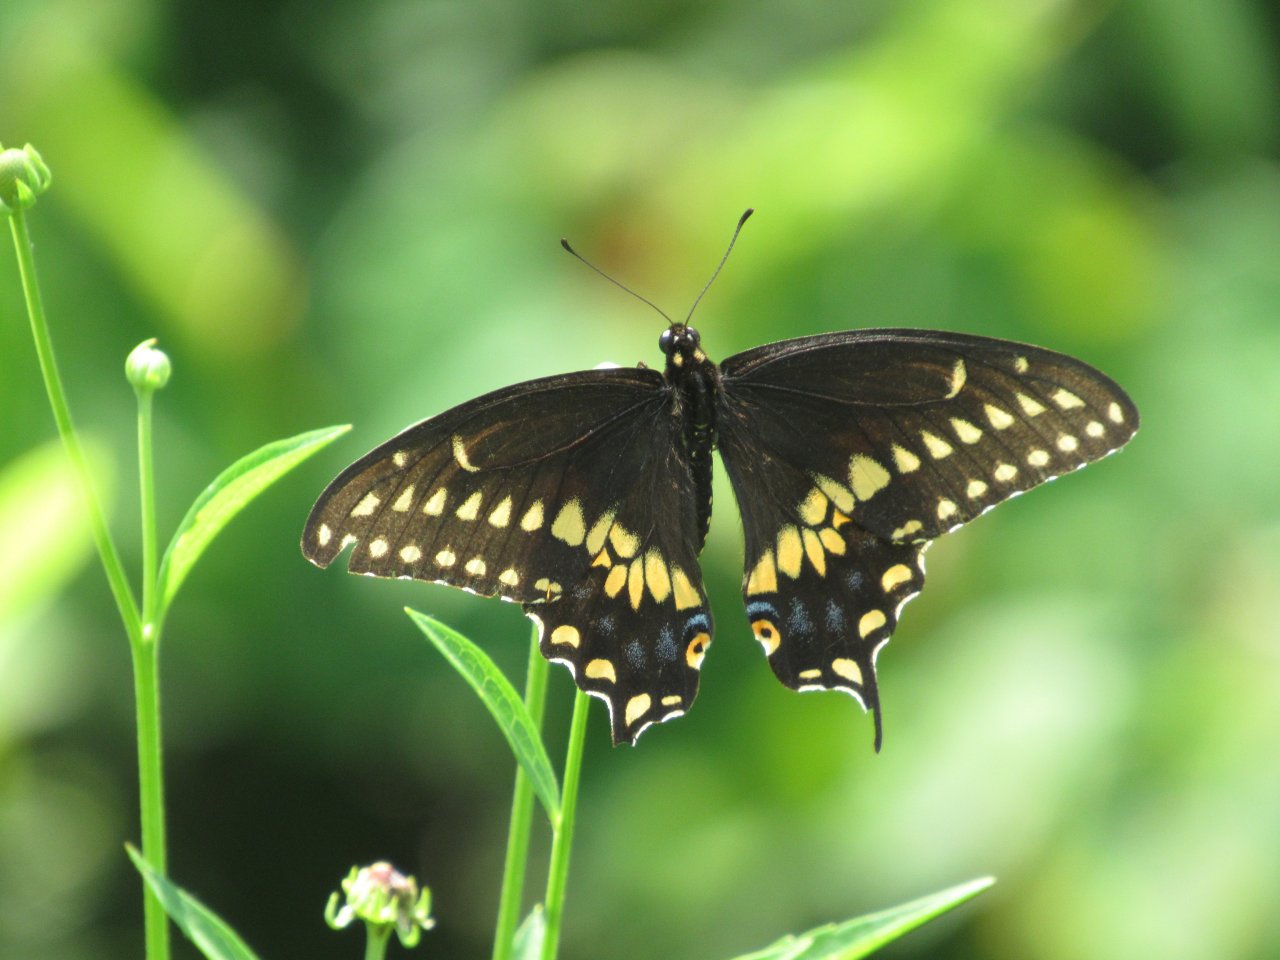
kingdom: Animalia
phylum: Arthropoda
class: Insecta
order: Lepidoptera
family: Papilionidae
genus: Papilio
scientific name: Papilio polyxenes
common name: Black Swallowtail
